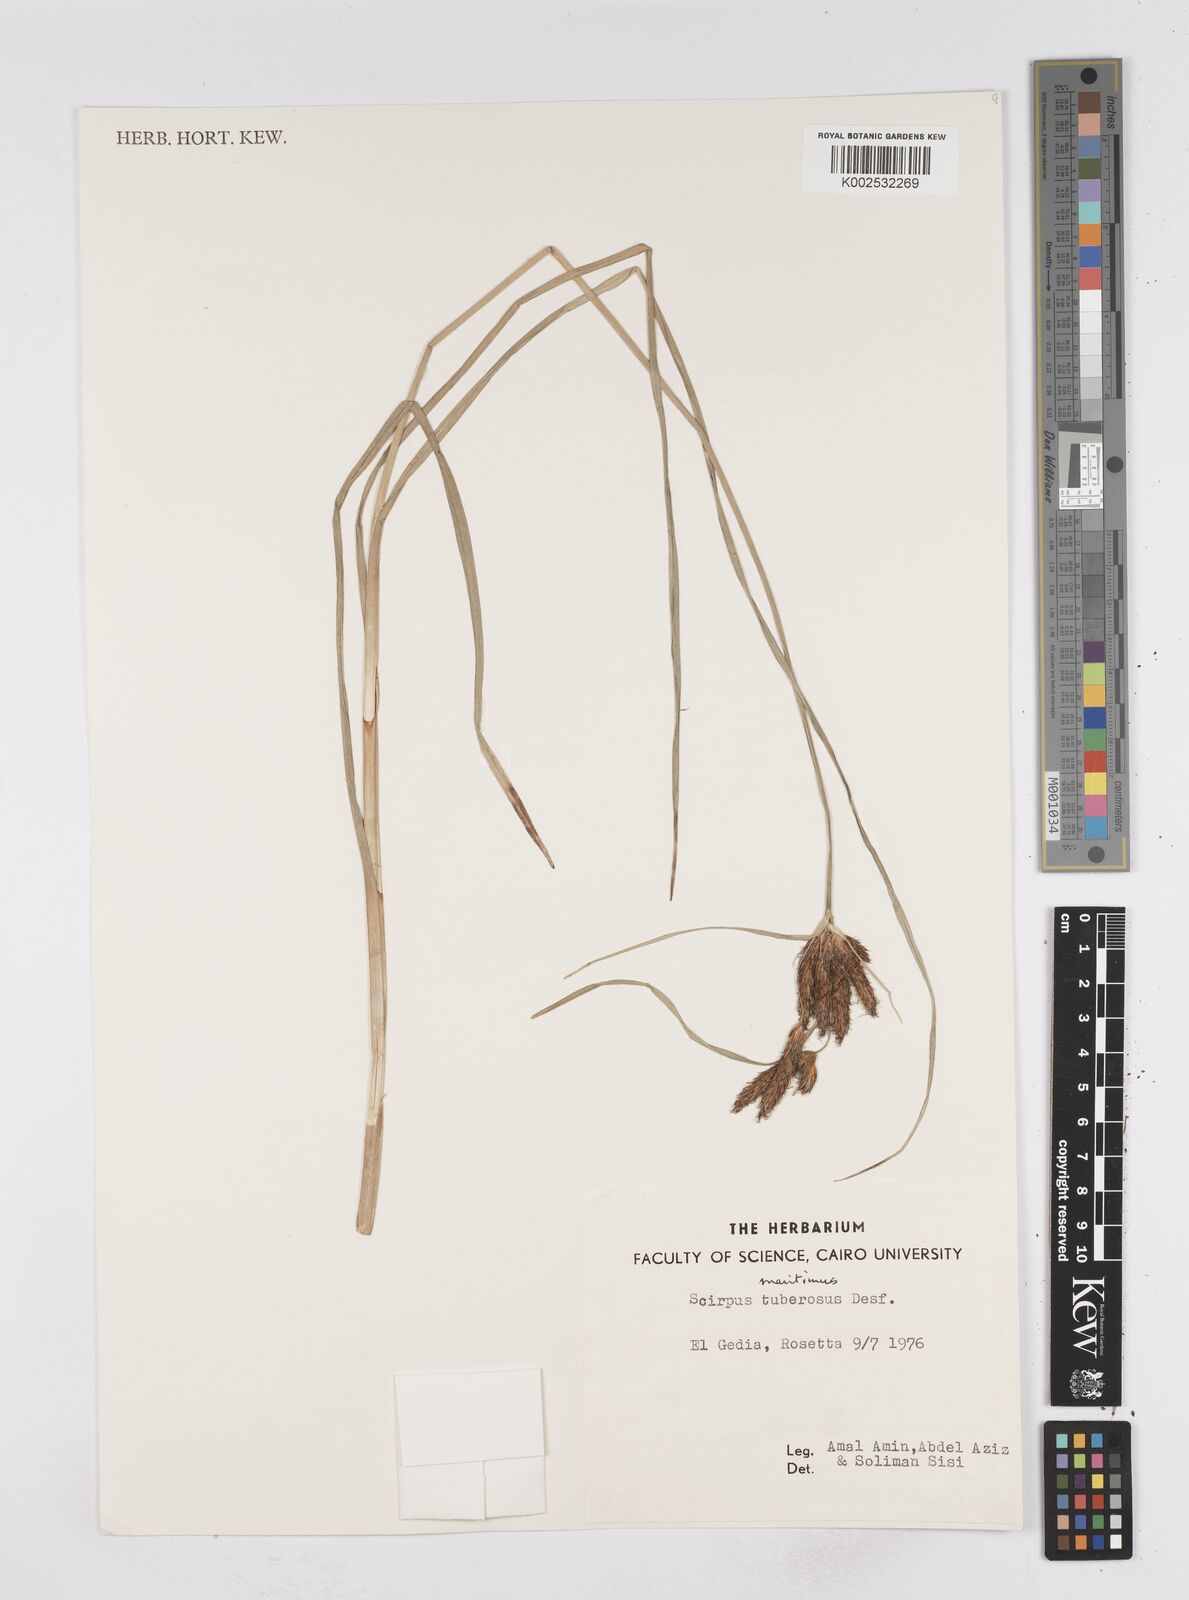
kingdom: Plantae
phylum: Tracheophyta
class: Liliopsida
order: Poales
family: Cyperaceae
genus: Bolboschoenus
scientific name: Bolboschoenus maritimus
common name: Sea club-rush
